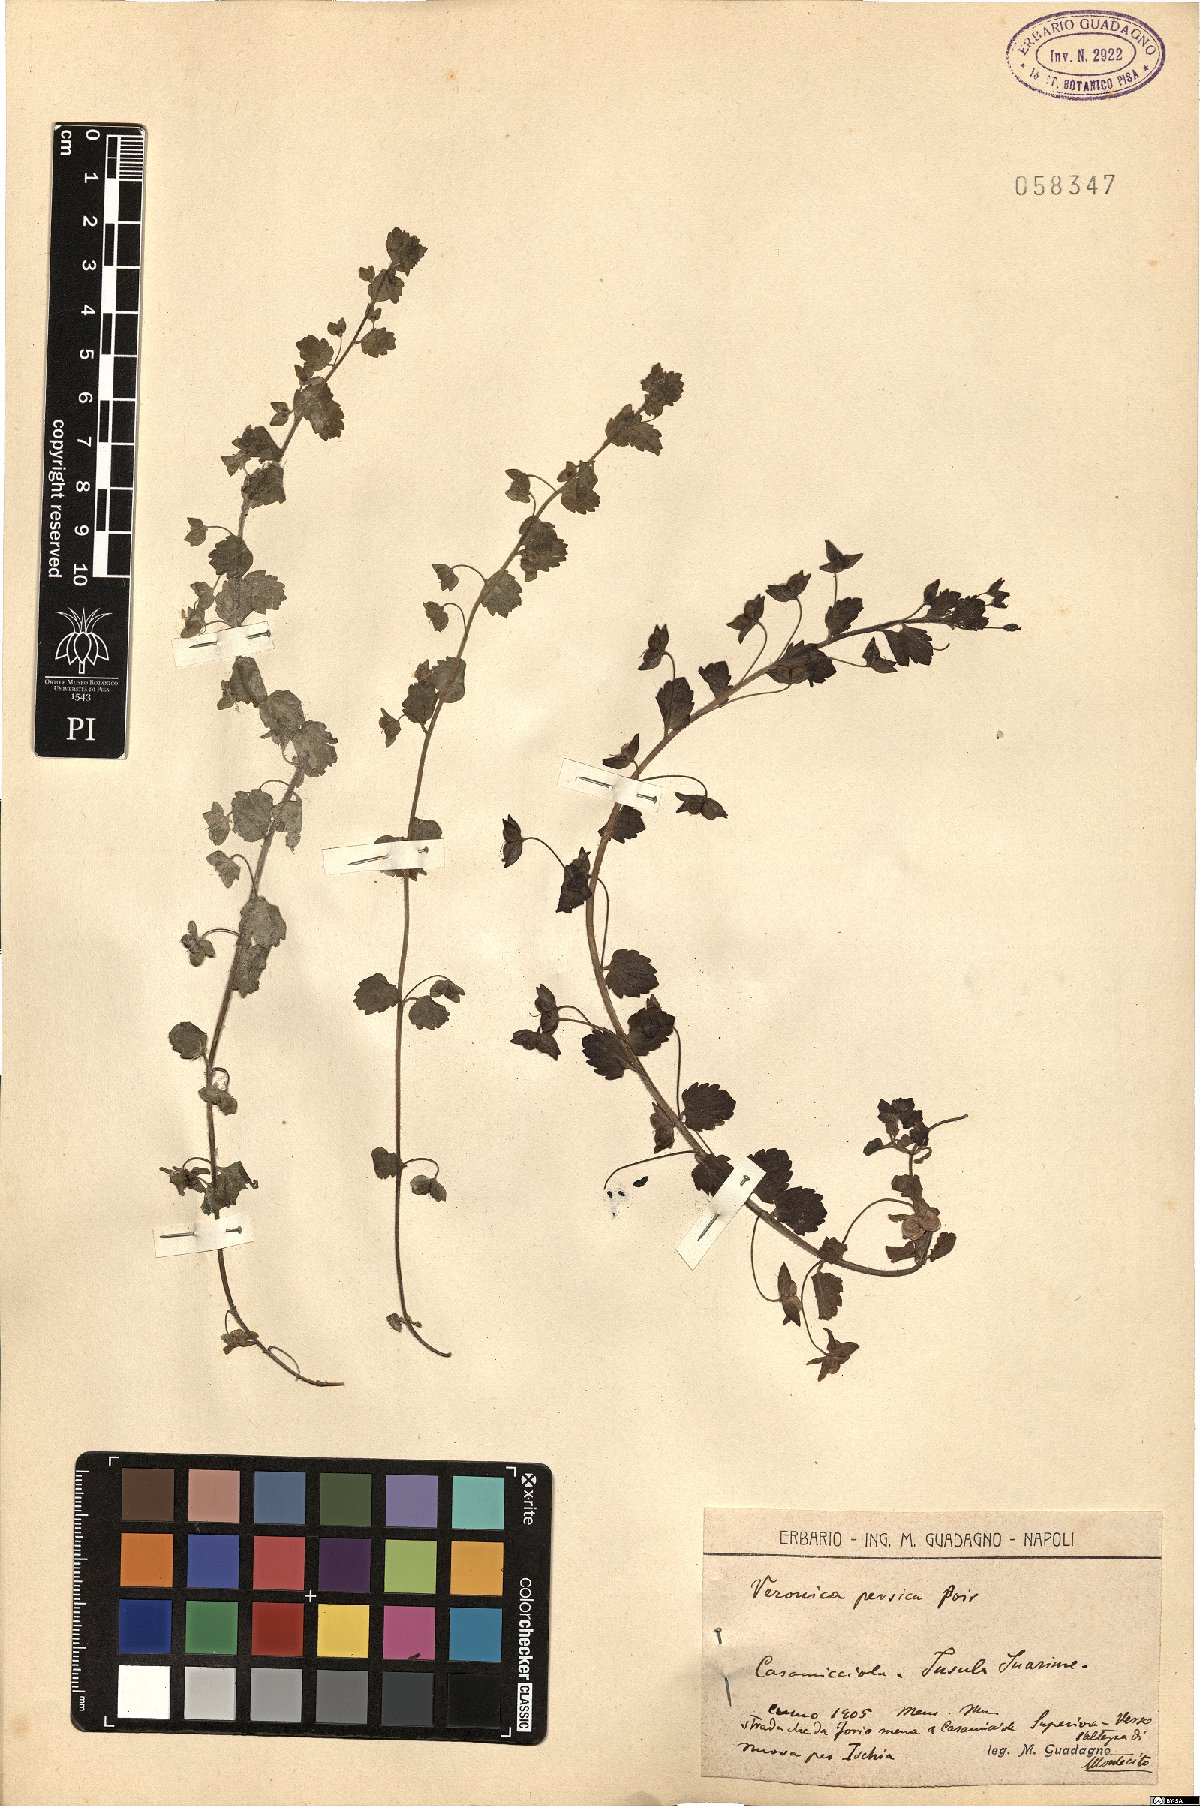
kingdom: Plantae
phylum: Tracheophyta
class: Magnoliopsida
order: Lamiales
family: Plantaginaceae
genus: Veronica
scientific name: Veronica persica
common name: Common field-speedwell
